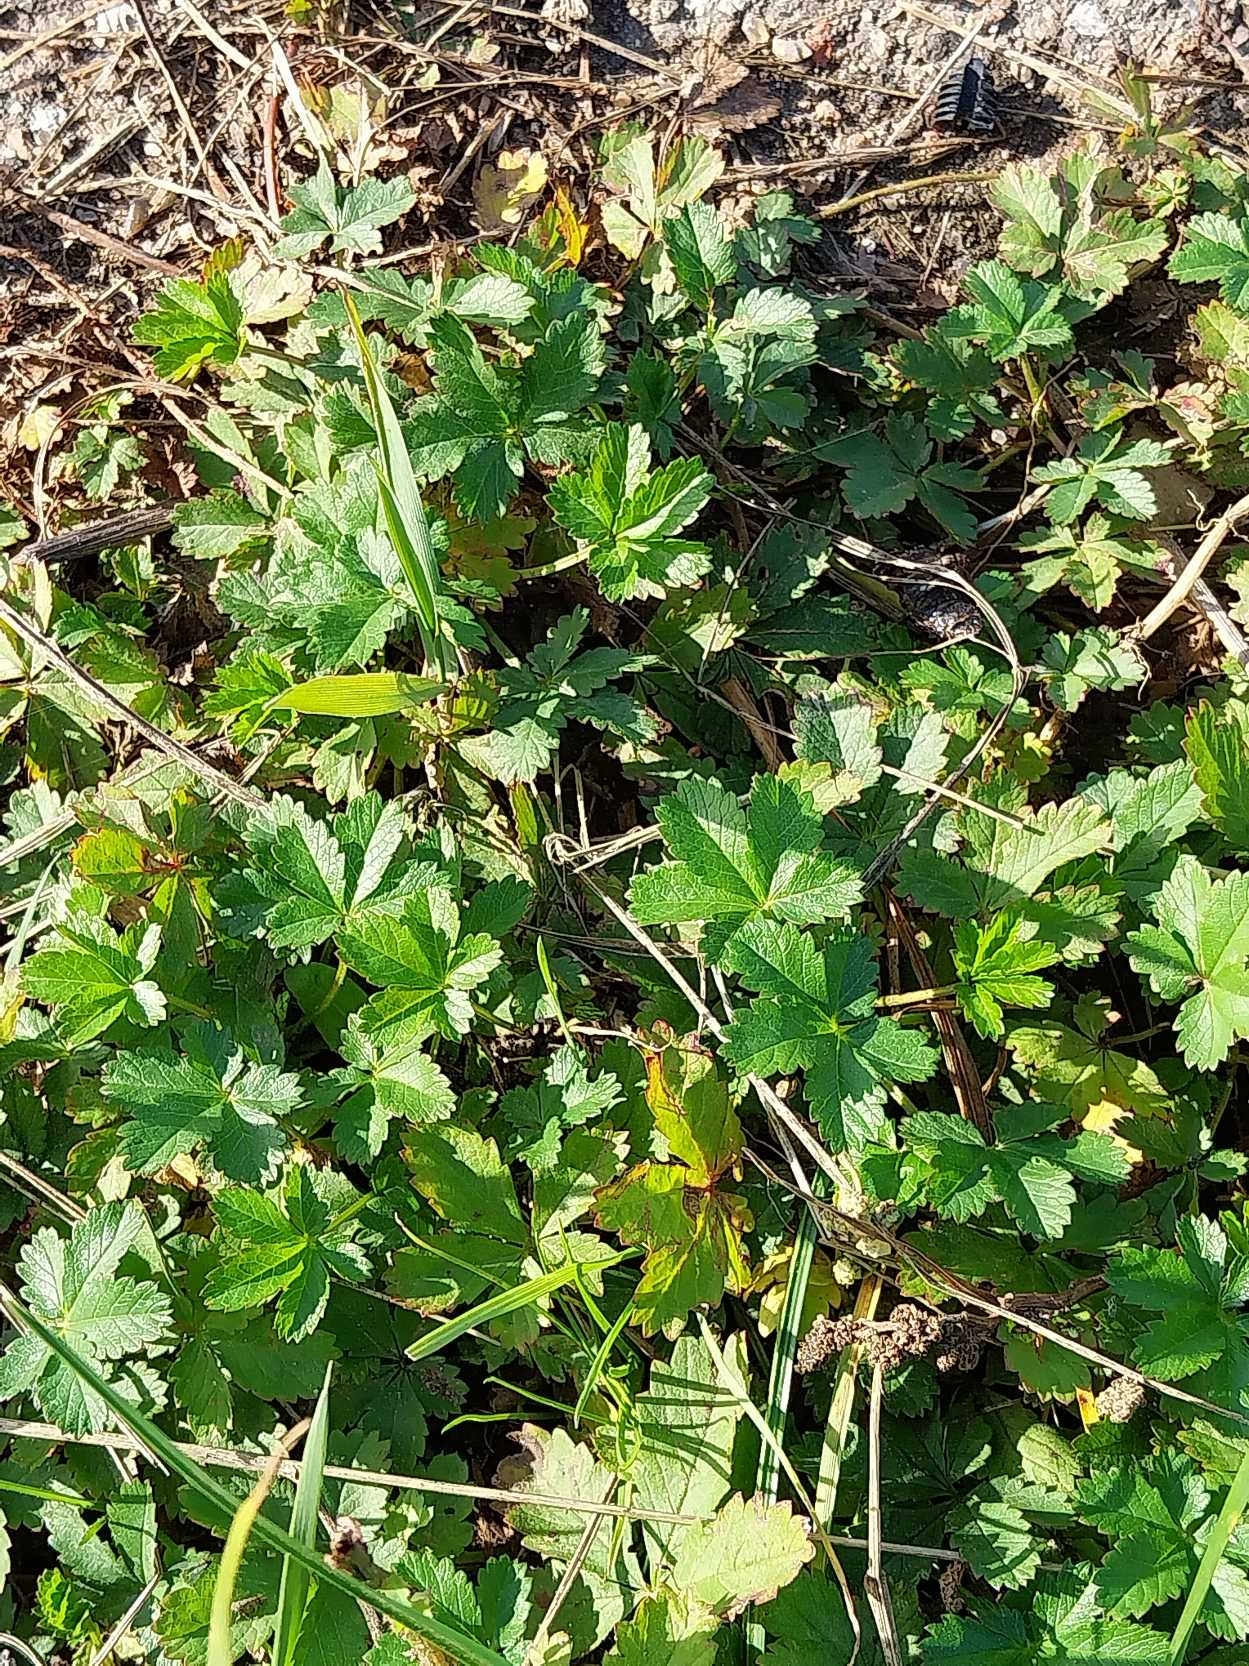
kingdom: Plantae
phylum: Tracheophyta
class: Magnoliopsida
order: Rosales
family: Rosaceae
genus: Potentilla
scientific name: Potentilla reptans
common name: Krybende potentil
